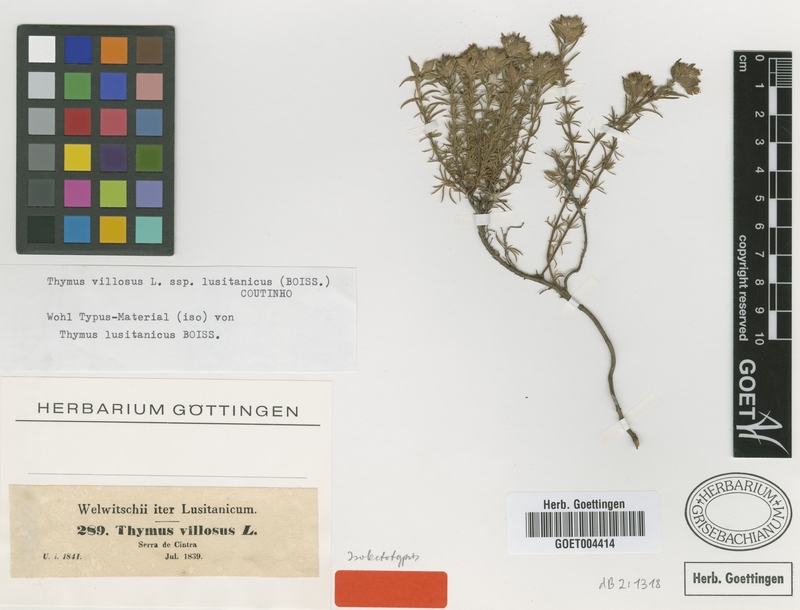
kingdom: Plantae
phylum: Tracheophyta
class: Magnoliopsida
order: Lamiales
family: Lamiaceae
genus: Thymus
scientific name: Thymus villosus
